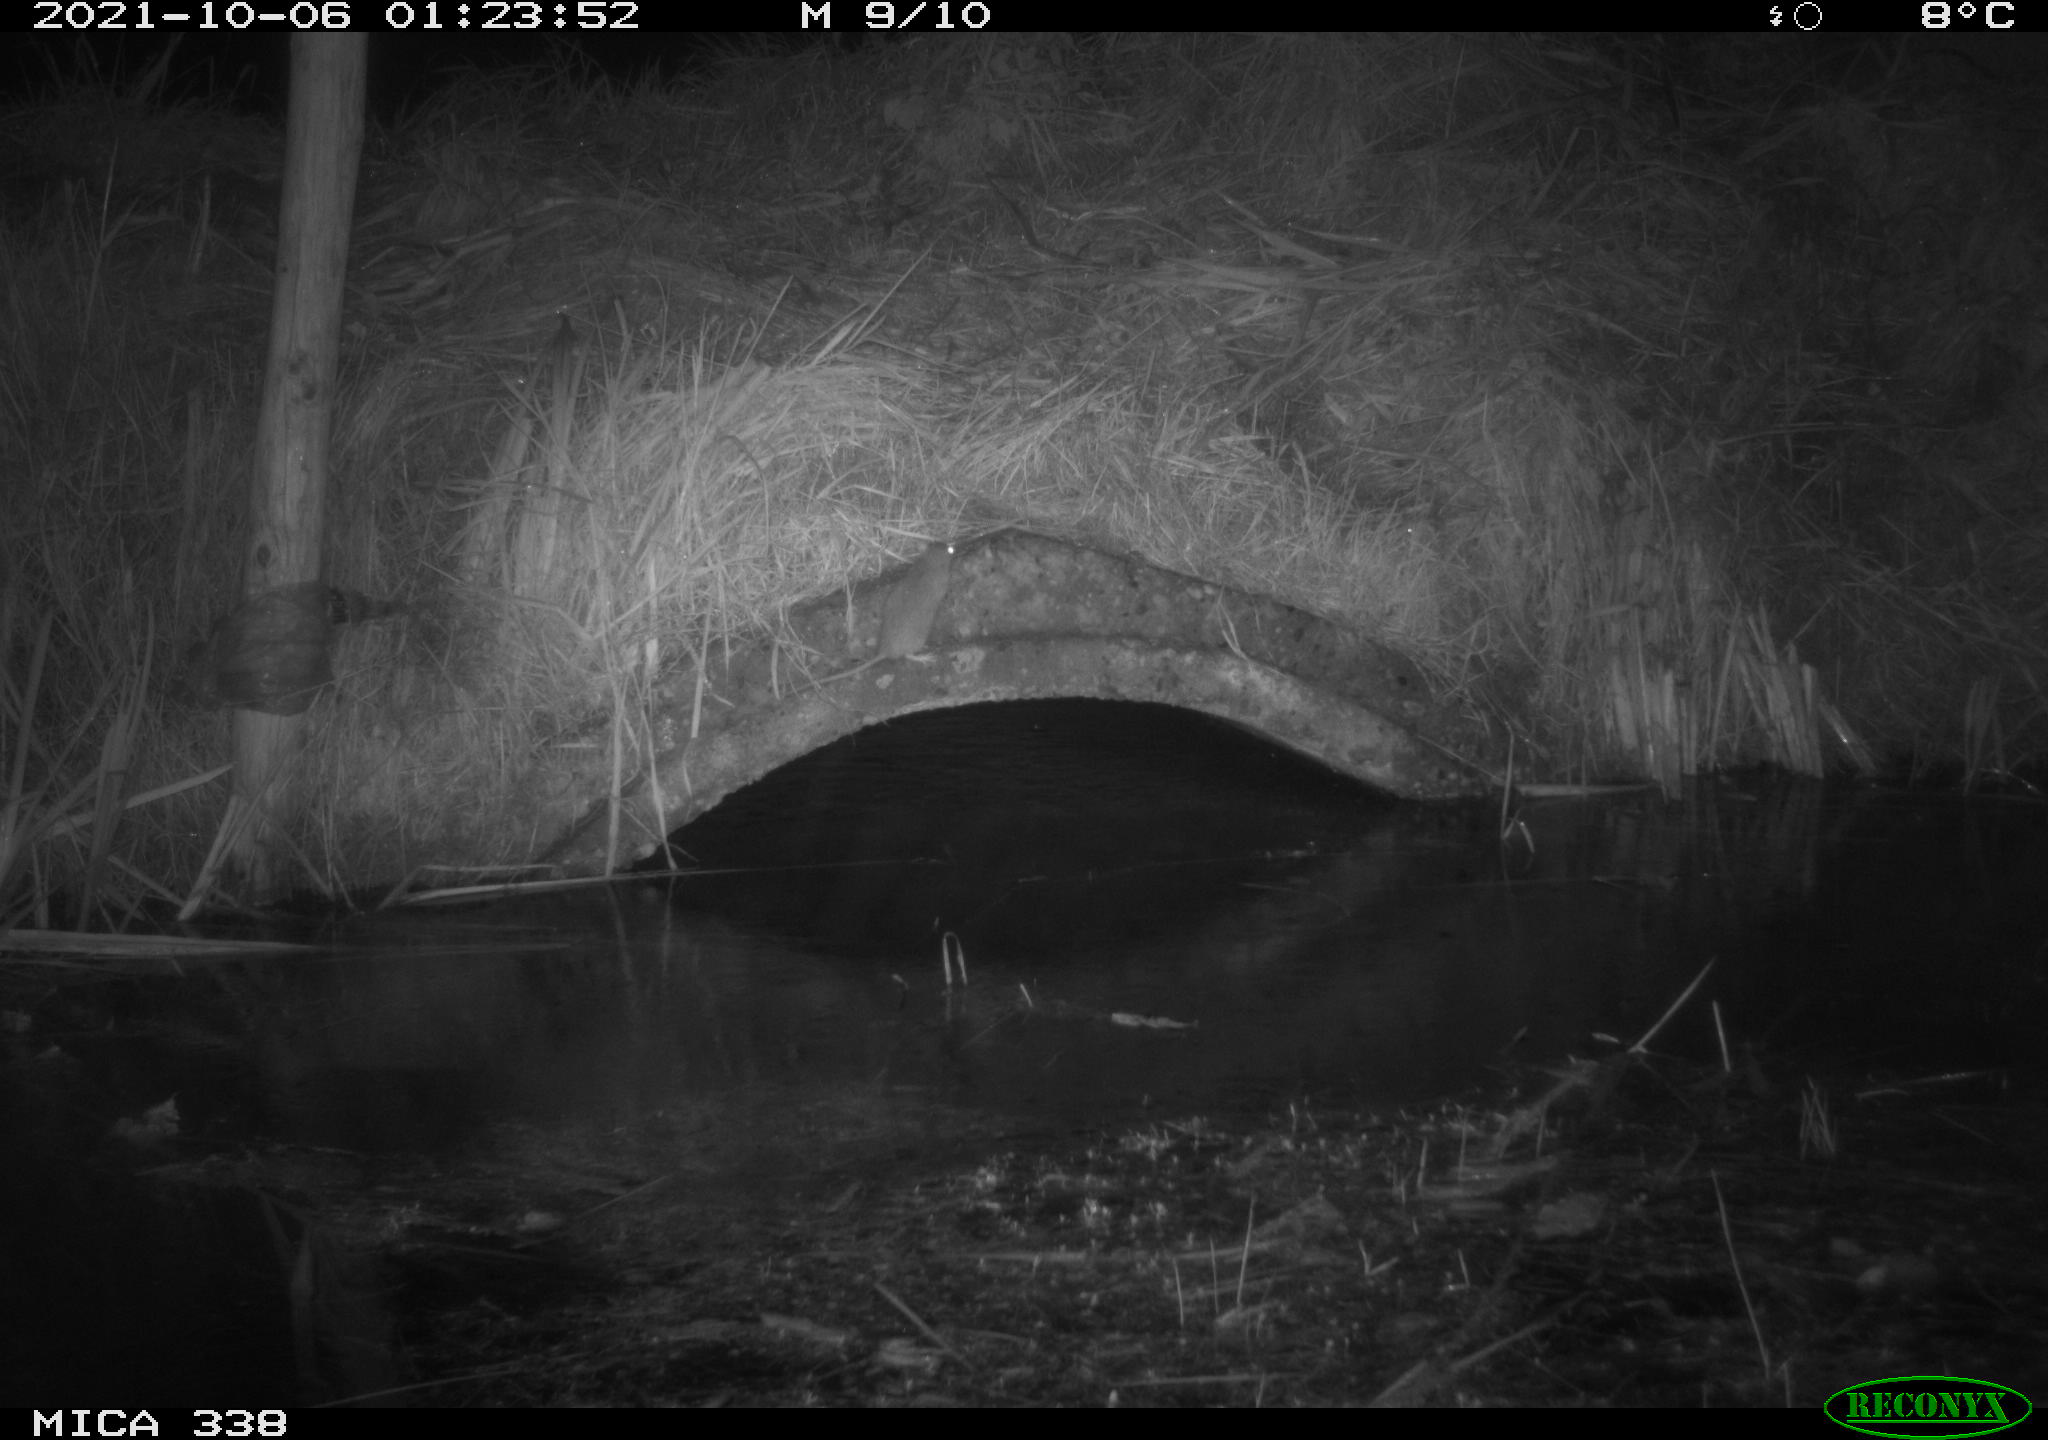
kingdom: Animalia
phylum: Chordata
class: Mammalia
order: Rodentia
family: Muridae
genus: Rattus
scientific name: Rattus norvegicus
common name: Brown rat
